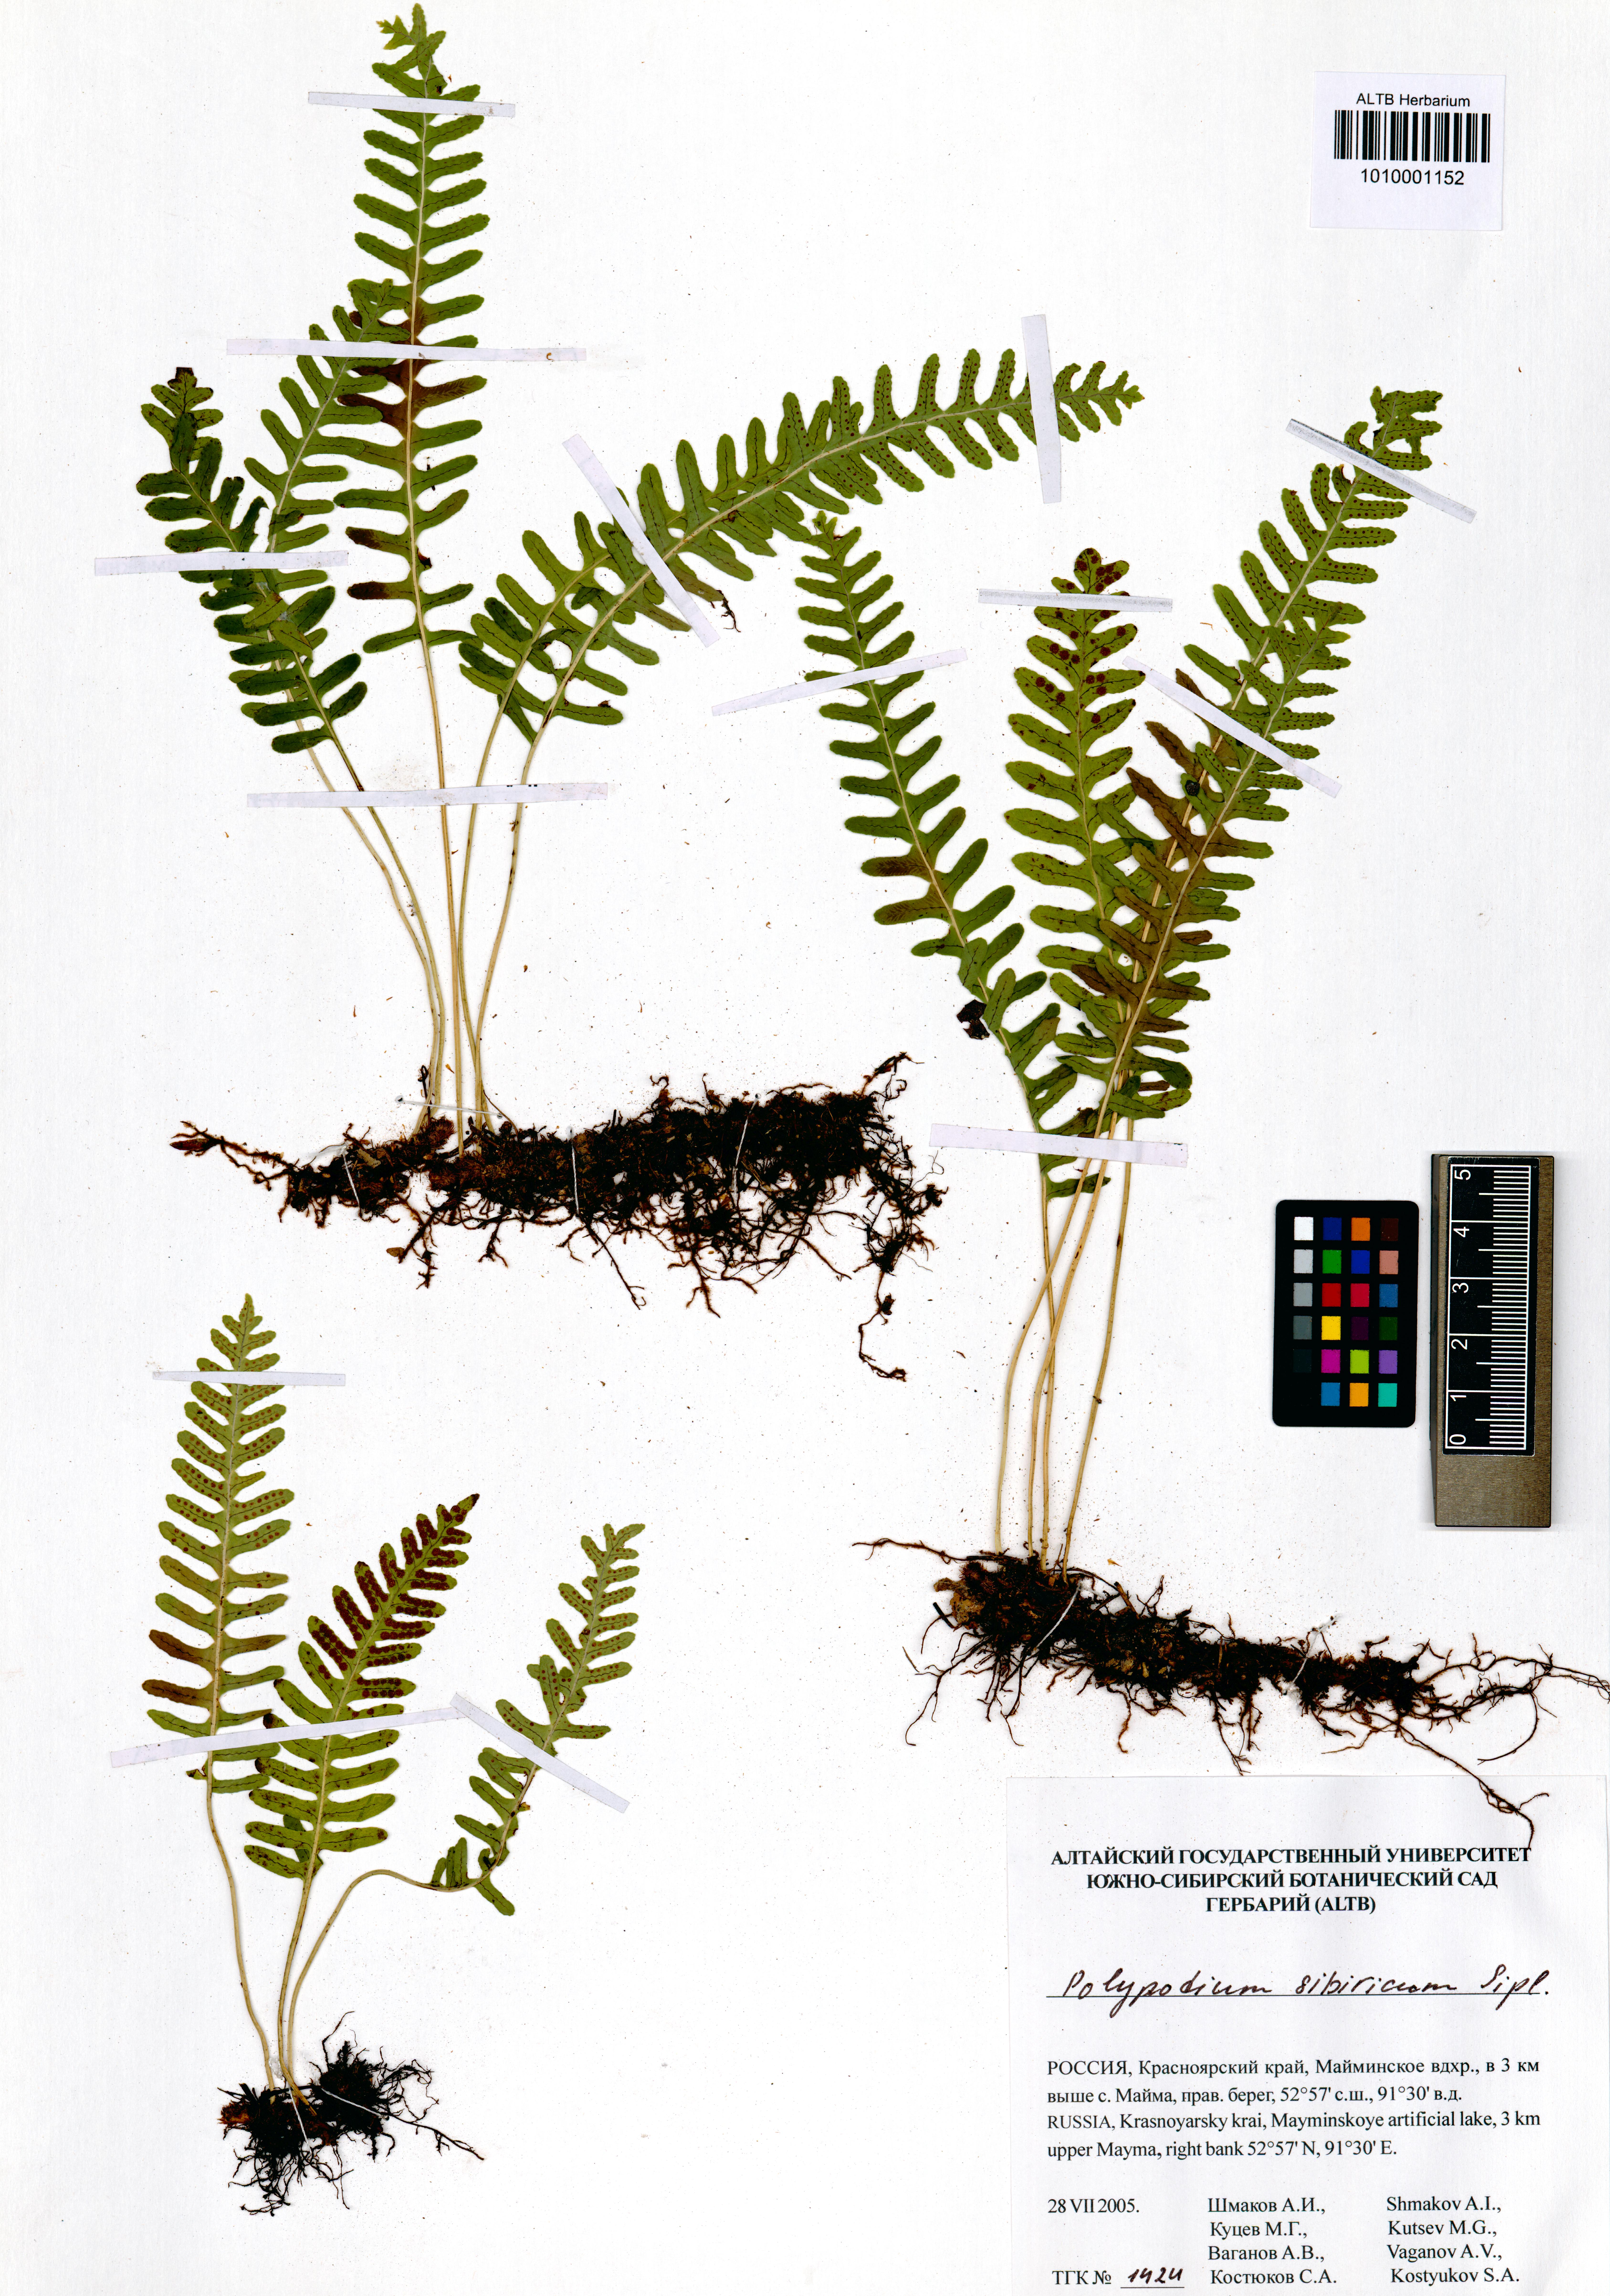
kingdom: Plantae
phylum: Tracheophyta
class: Polypodiopsida
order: Polypodiales
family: Polypodiaceae
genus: Polypodium
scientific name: Polypodium sibiricum
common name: Siberian polypody
